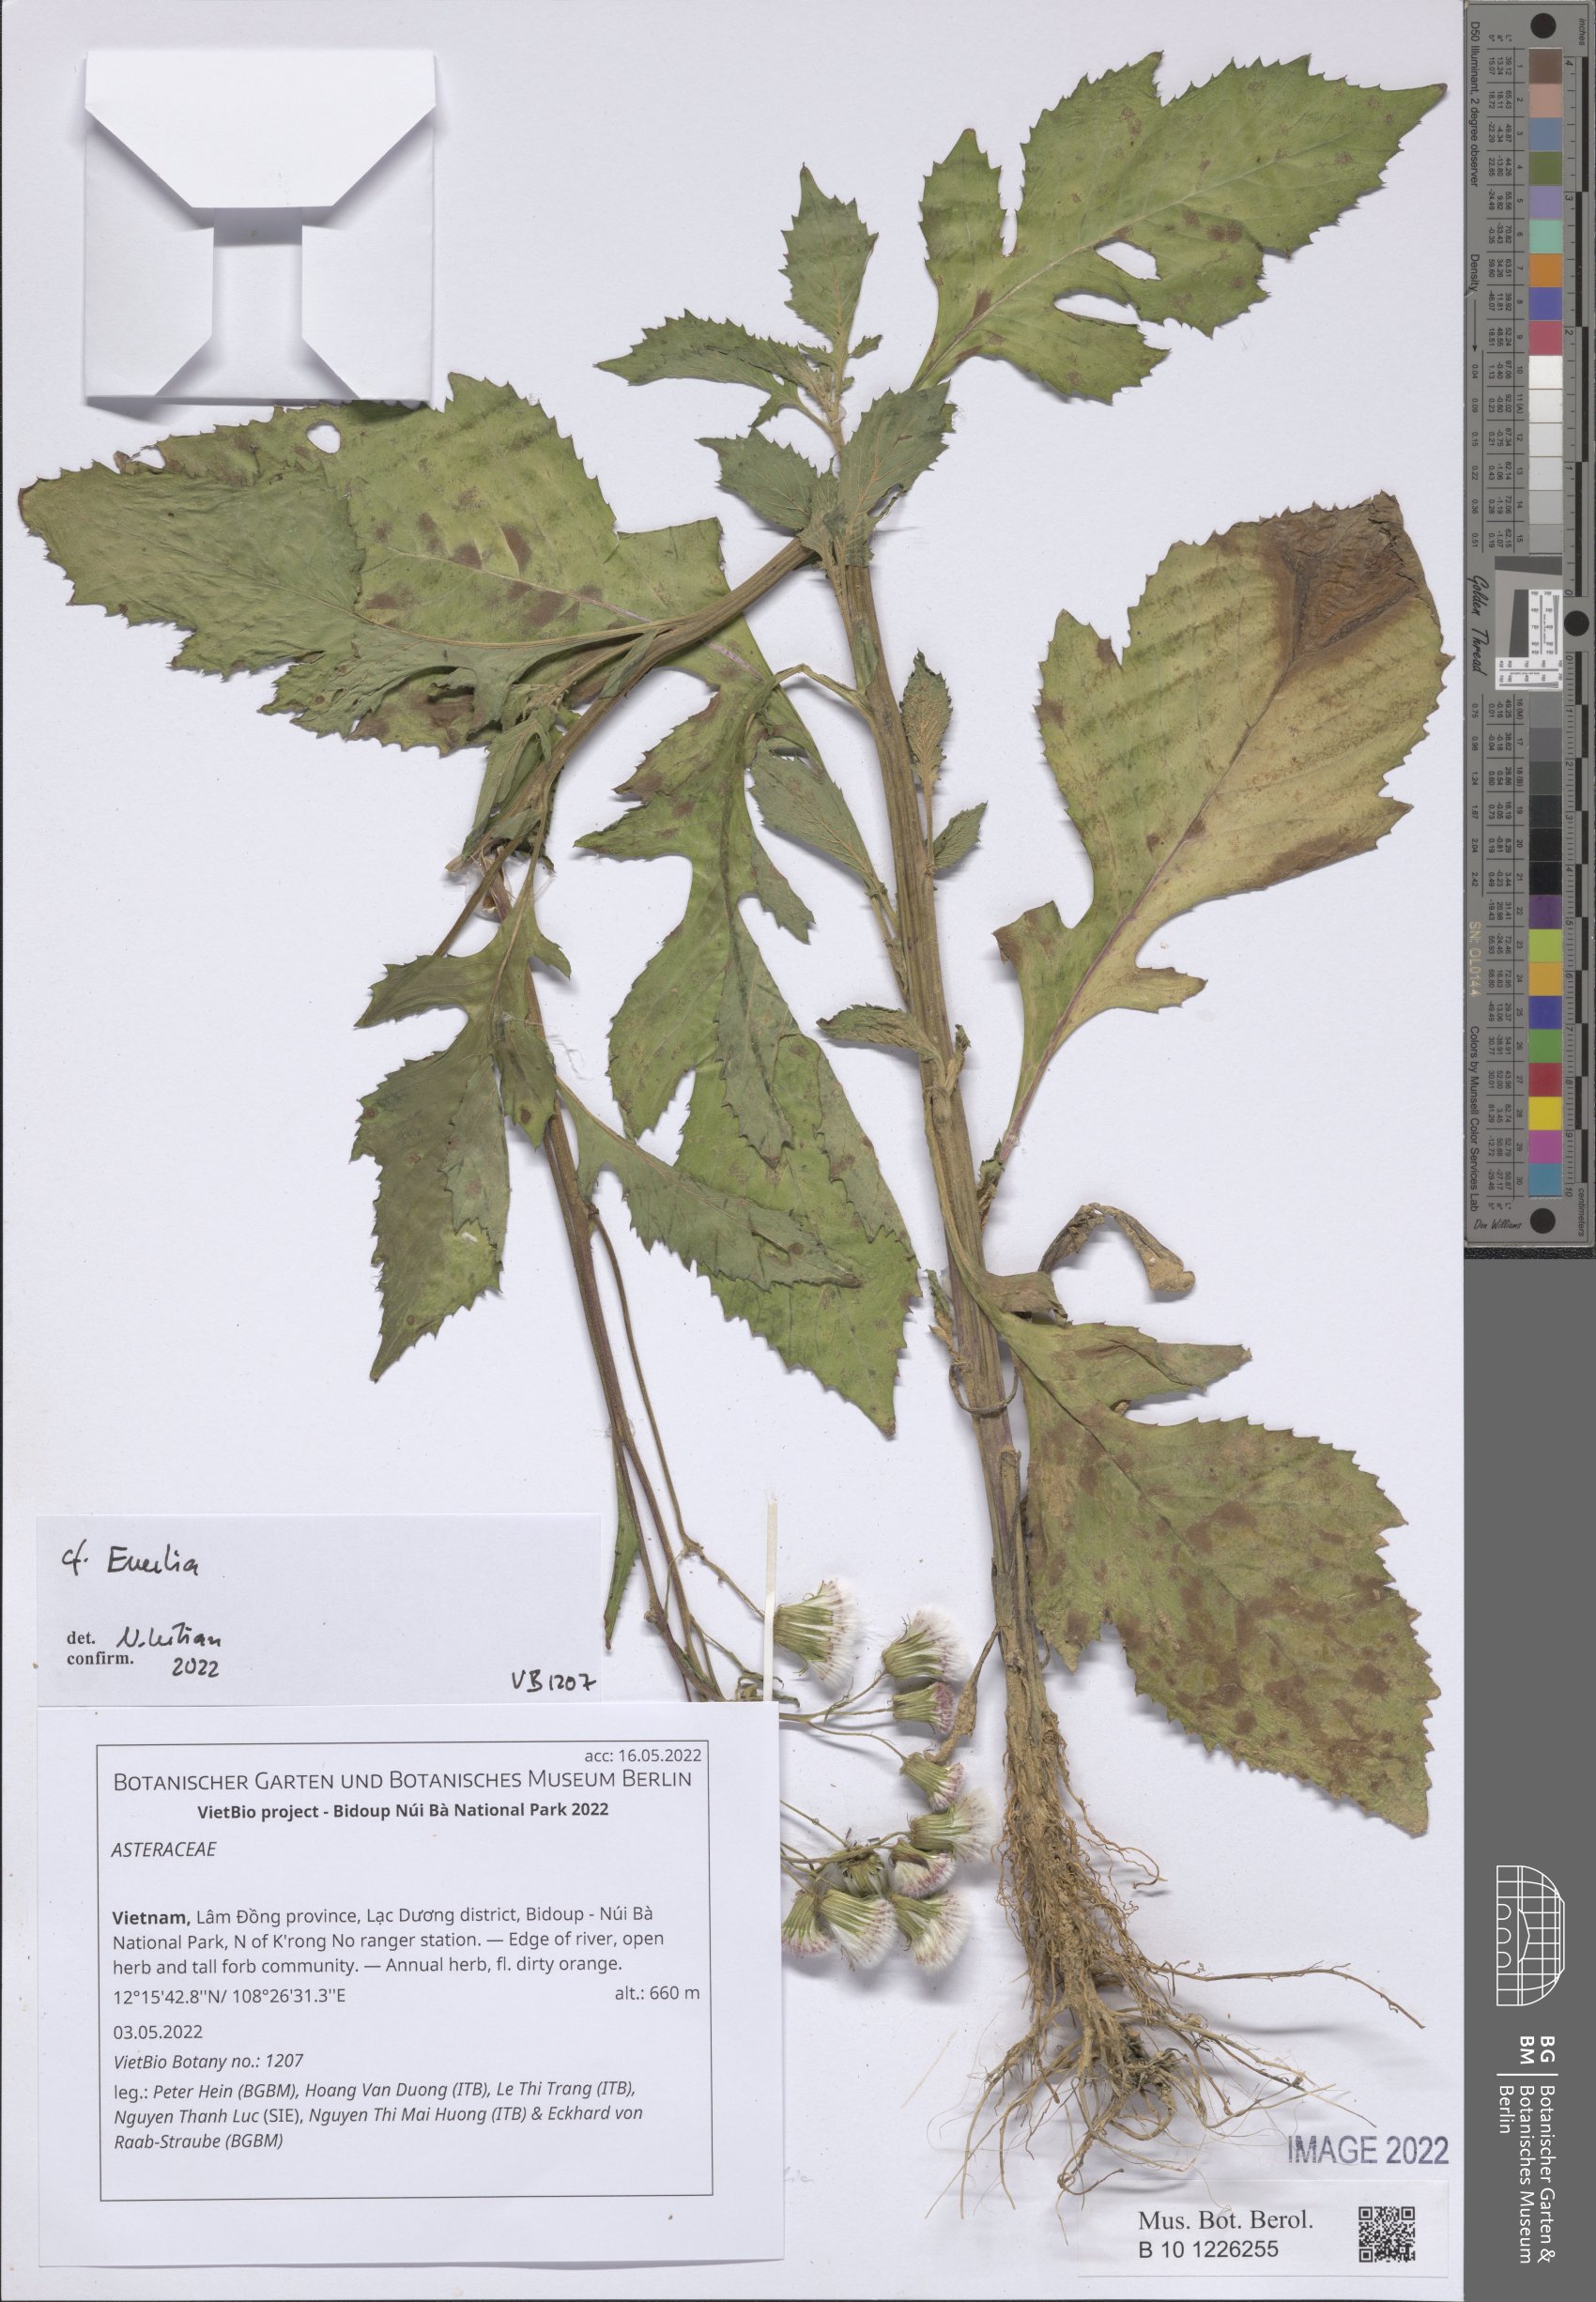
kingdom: Plantae
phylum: Tracheophyta
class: Magnoliopsida
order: Asterales
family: Asteraceae
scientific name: Asteraceae
